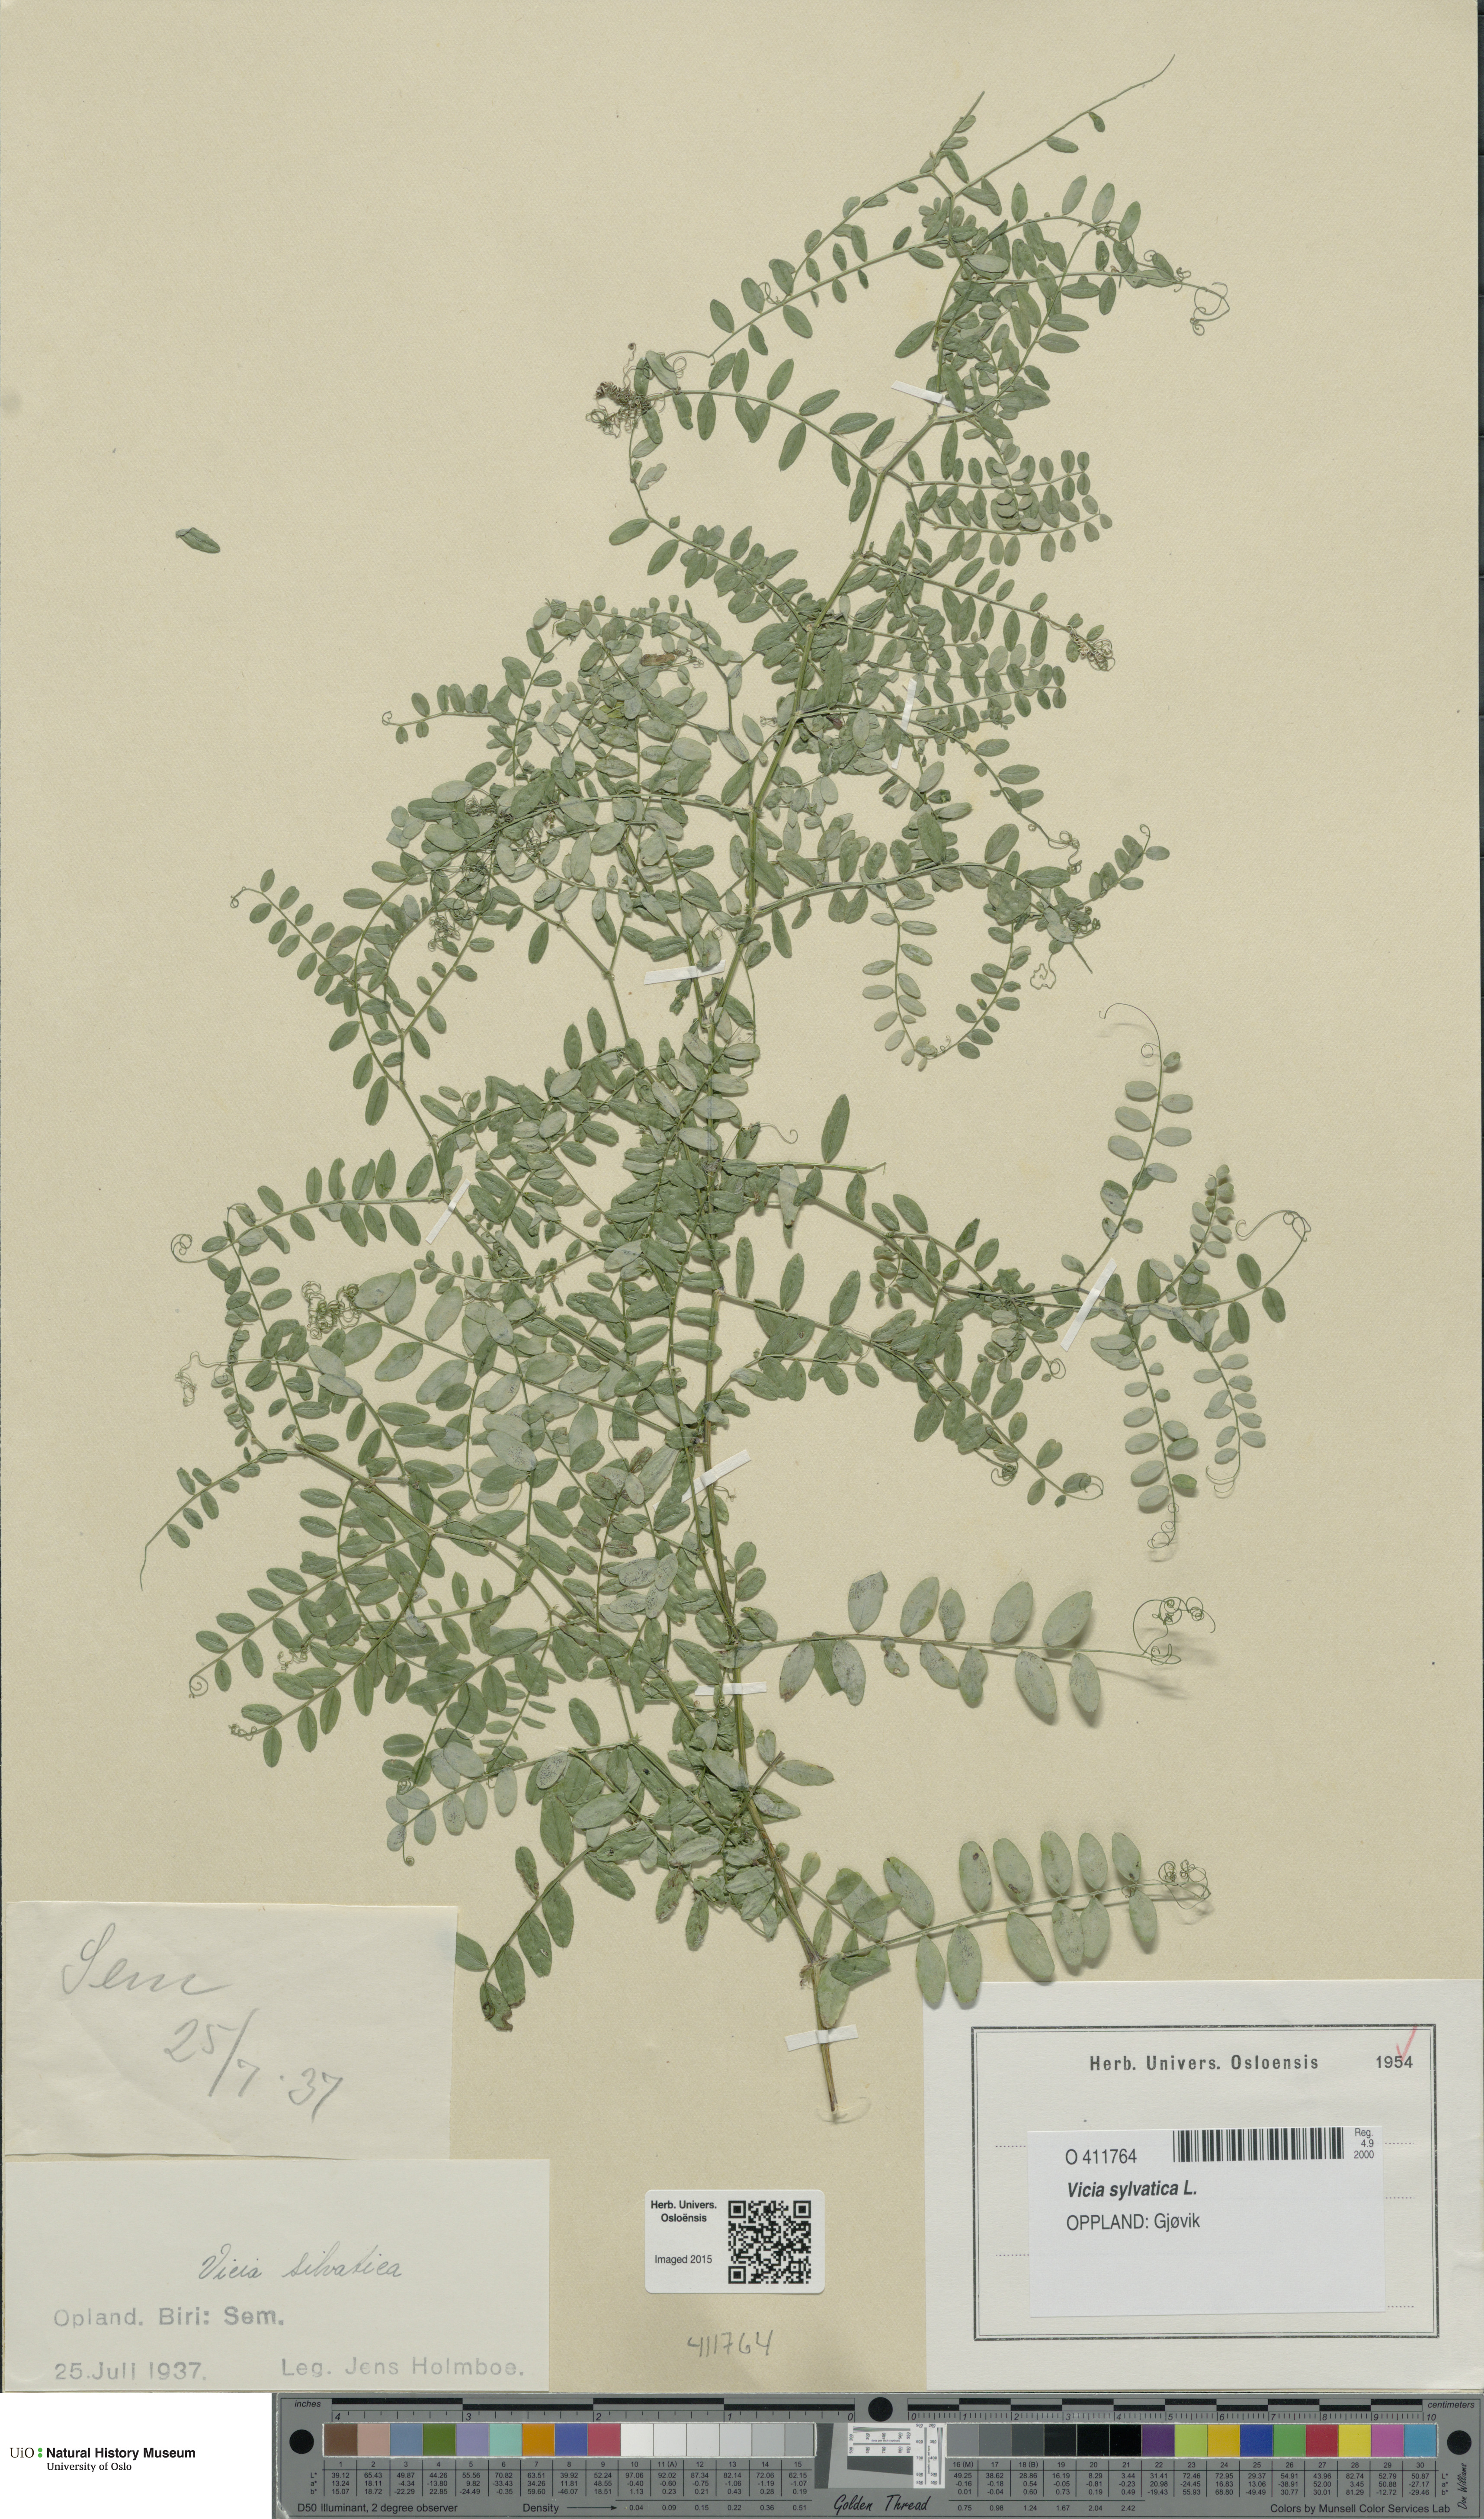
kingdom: Plantae
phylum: Tracheophyta
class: Magnoliopsida
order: Fabales
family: Fabaceae
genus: Vicia
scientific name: Vicia sylvatica
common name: Wood vetch
